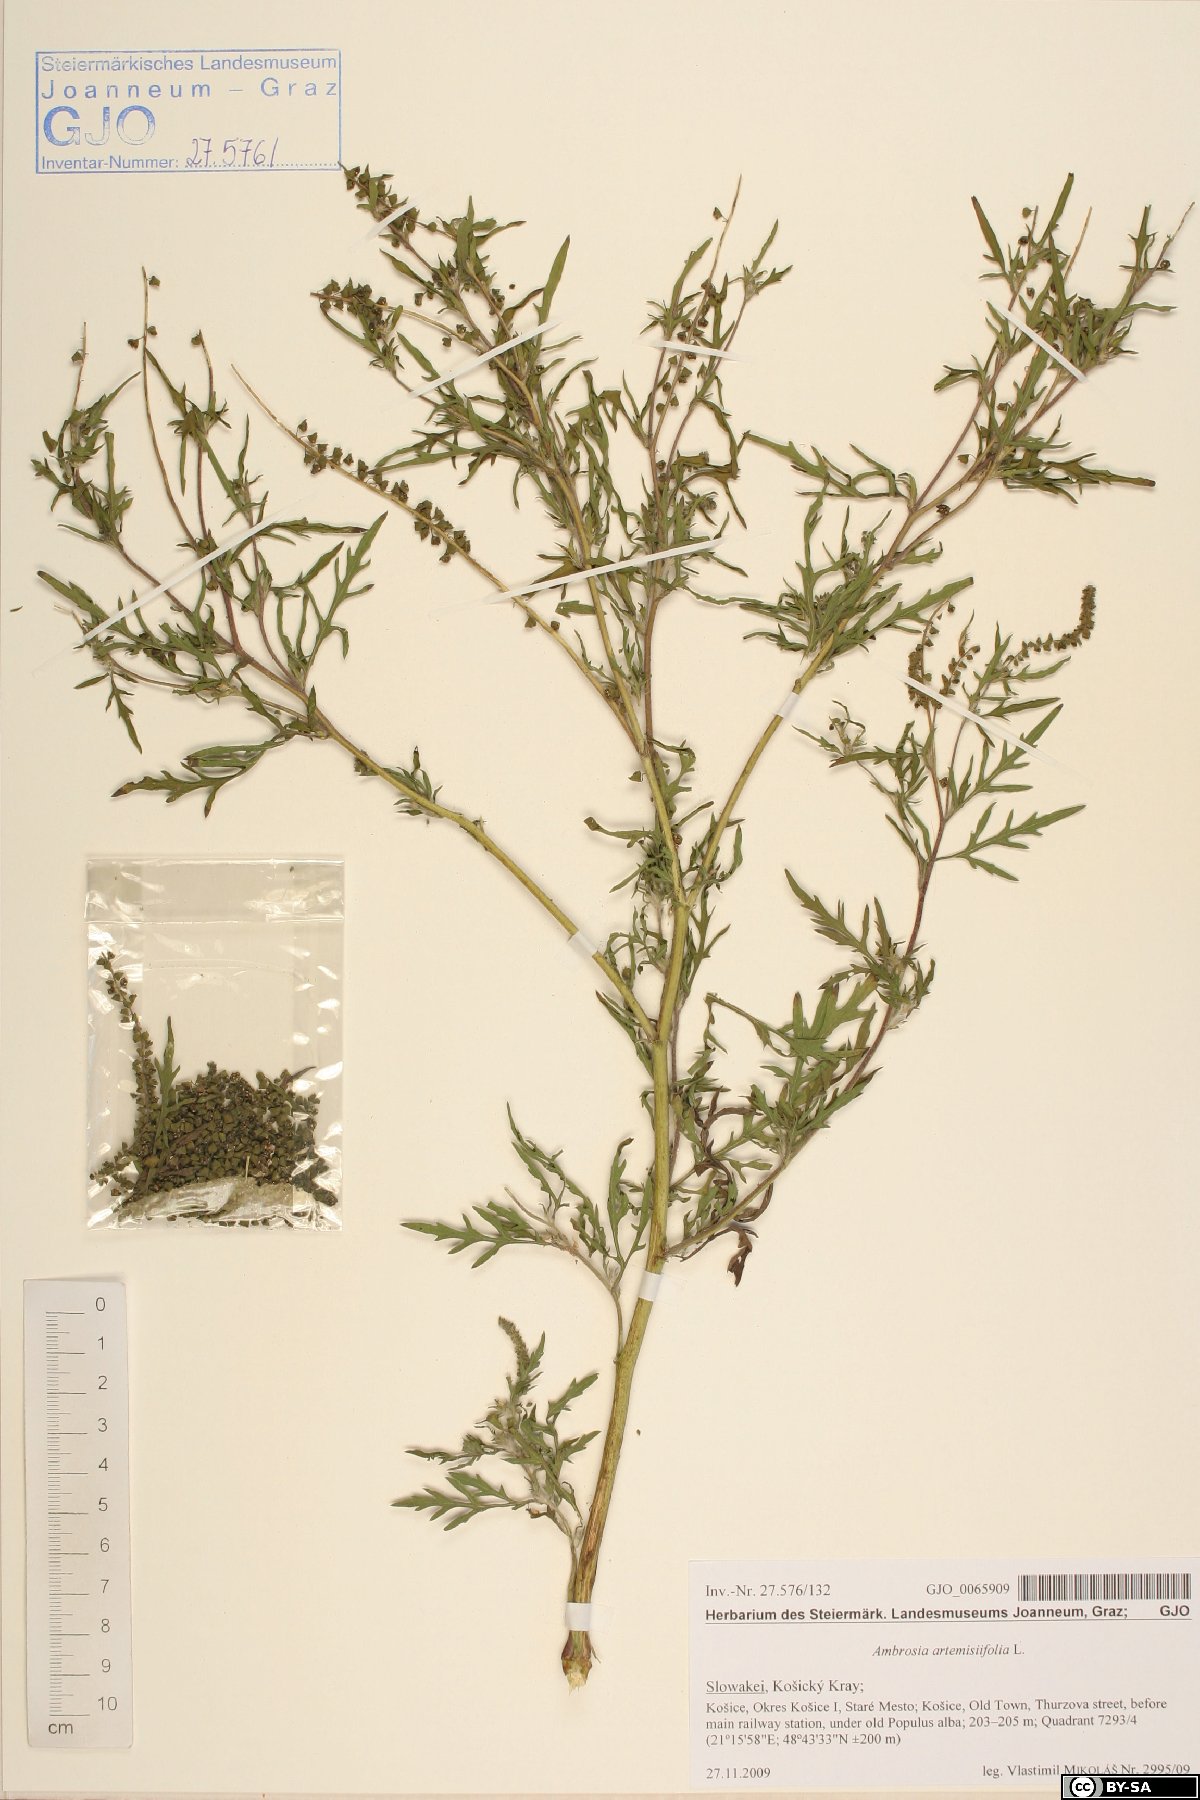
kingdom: Plantae
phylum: Tracheophyta
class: Magnoliopsida
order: Asterales
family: Asteraceae
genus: Ambrosia
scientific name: Ambrosia artemisiifolia
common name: Annual ragweed
